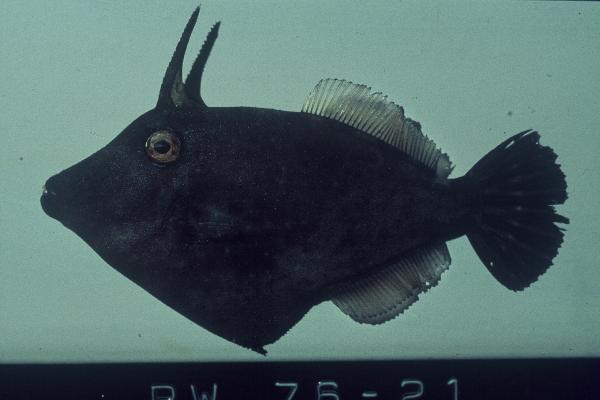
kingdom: Animalia
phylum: Chordata
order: Tetraodontiformes
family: Monacanthidae
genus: Cantherhines
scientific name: Cantherhines pardalis
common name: Honeycomb filefish
